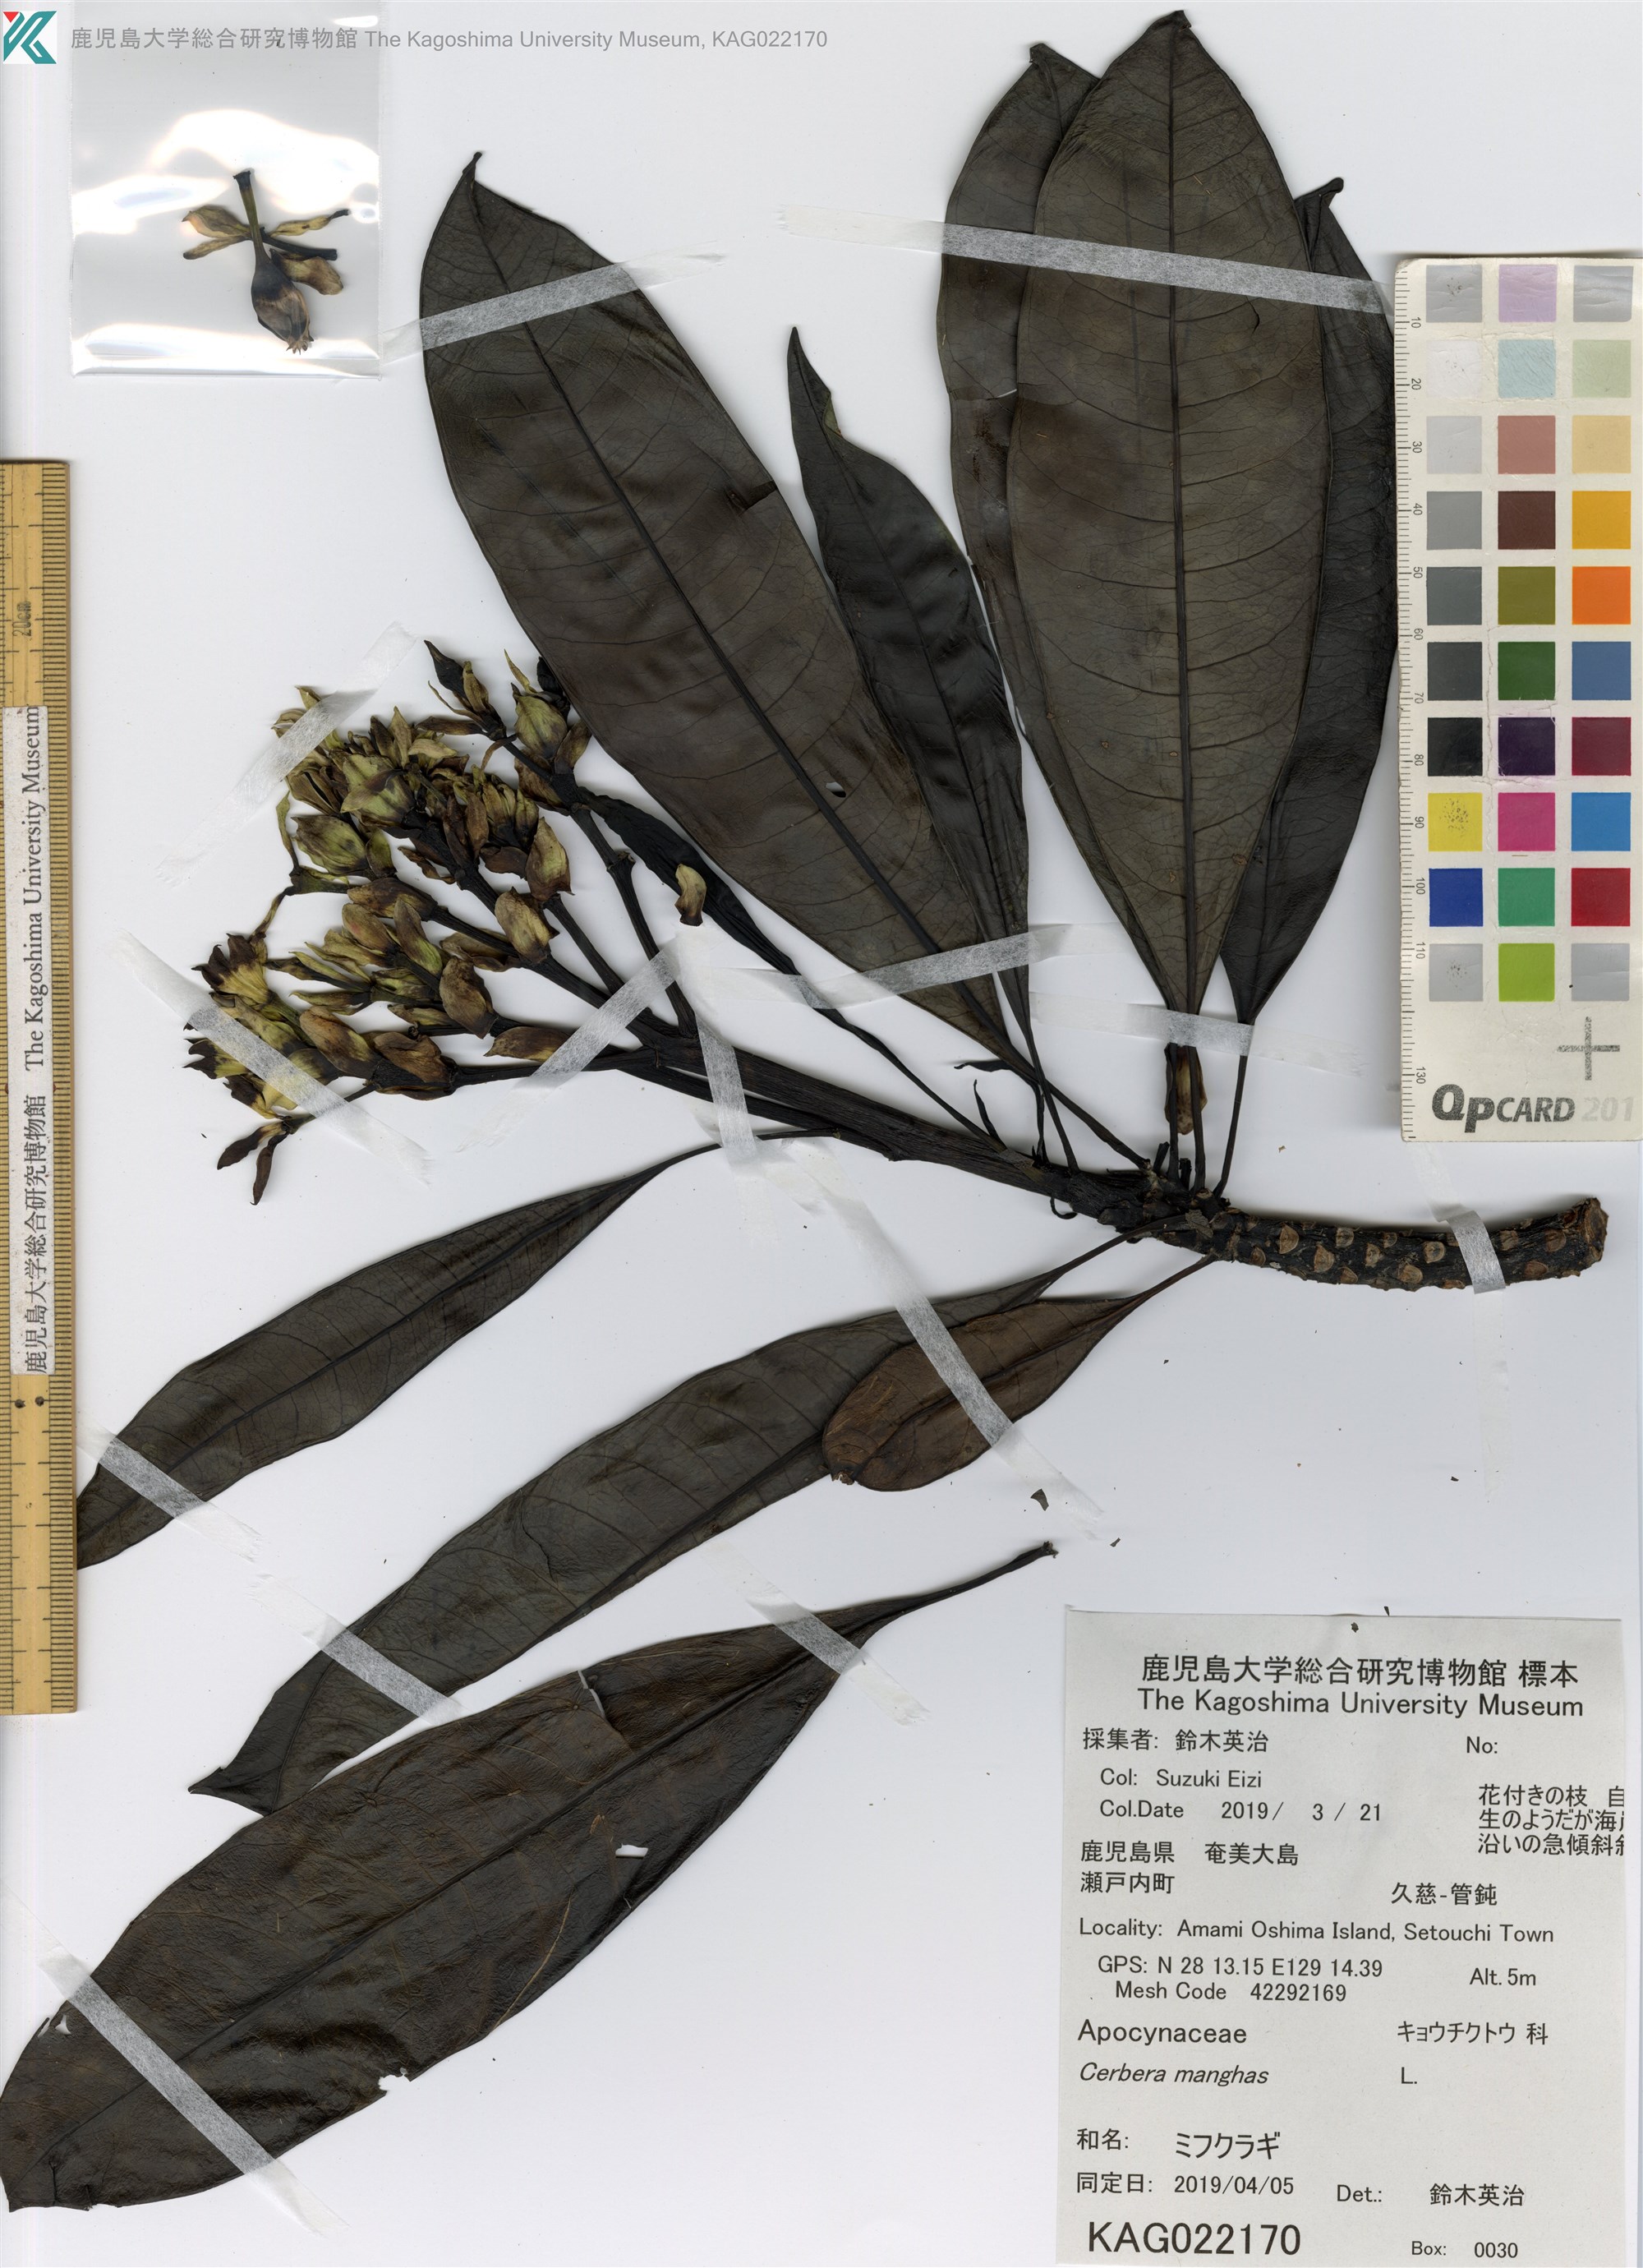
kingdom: Plantae
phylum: Tracheophyta
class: Magnoliopsida
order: Gentianales
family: Apocynaceae
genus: Cerbera
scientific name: Cerbera manghas
